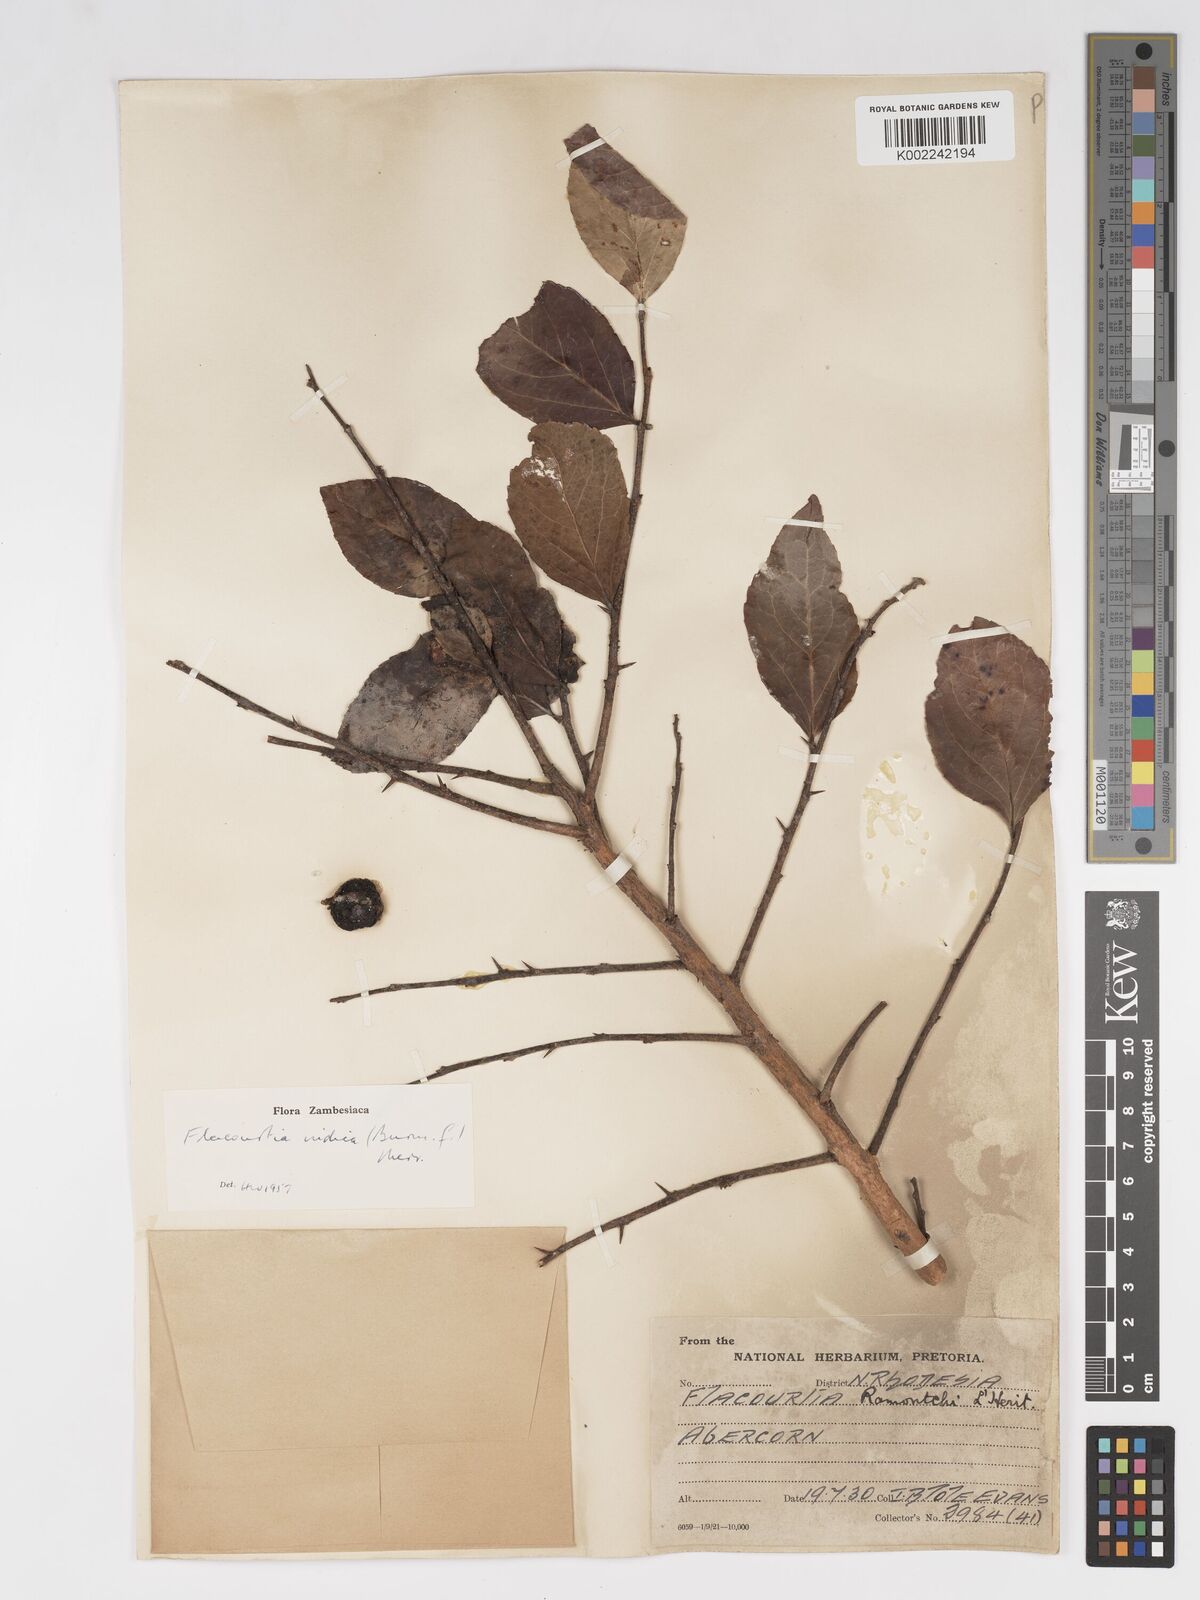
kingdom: Plantae
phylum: Tracheophyta
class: Magnoliopsida
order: Malpighiales
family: Salicaceae
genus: Flacourtia
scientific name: Flacourtia indica
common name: Governor's plum
